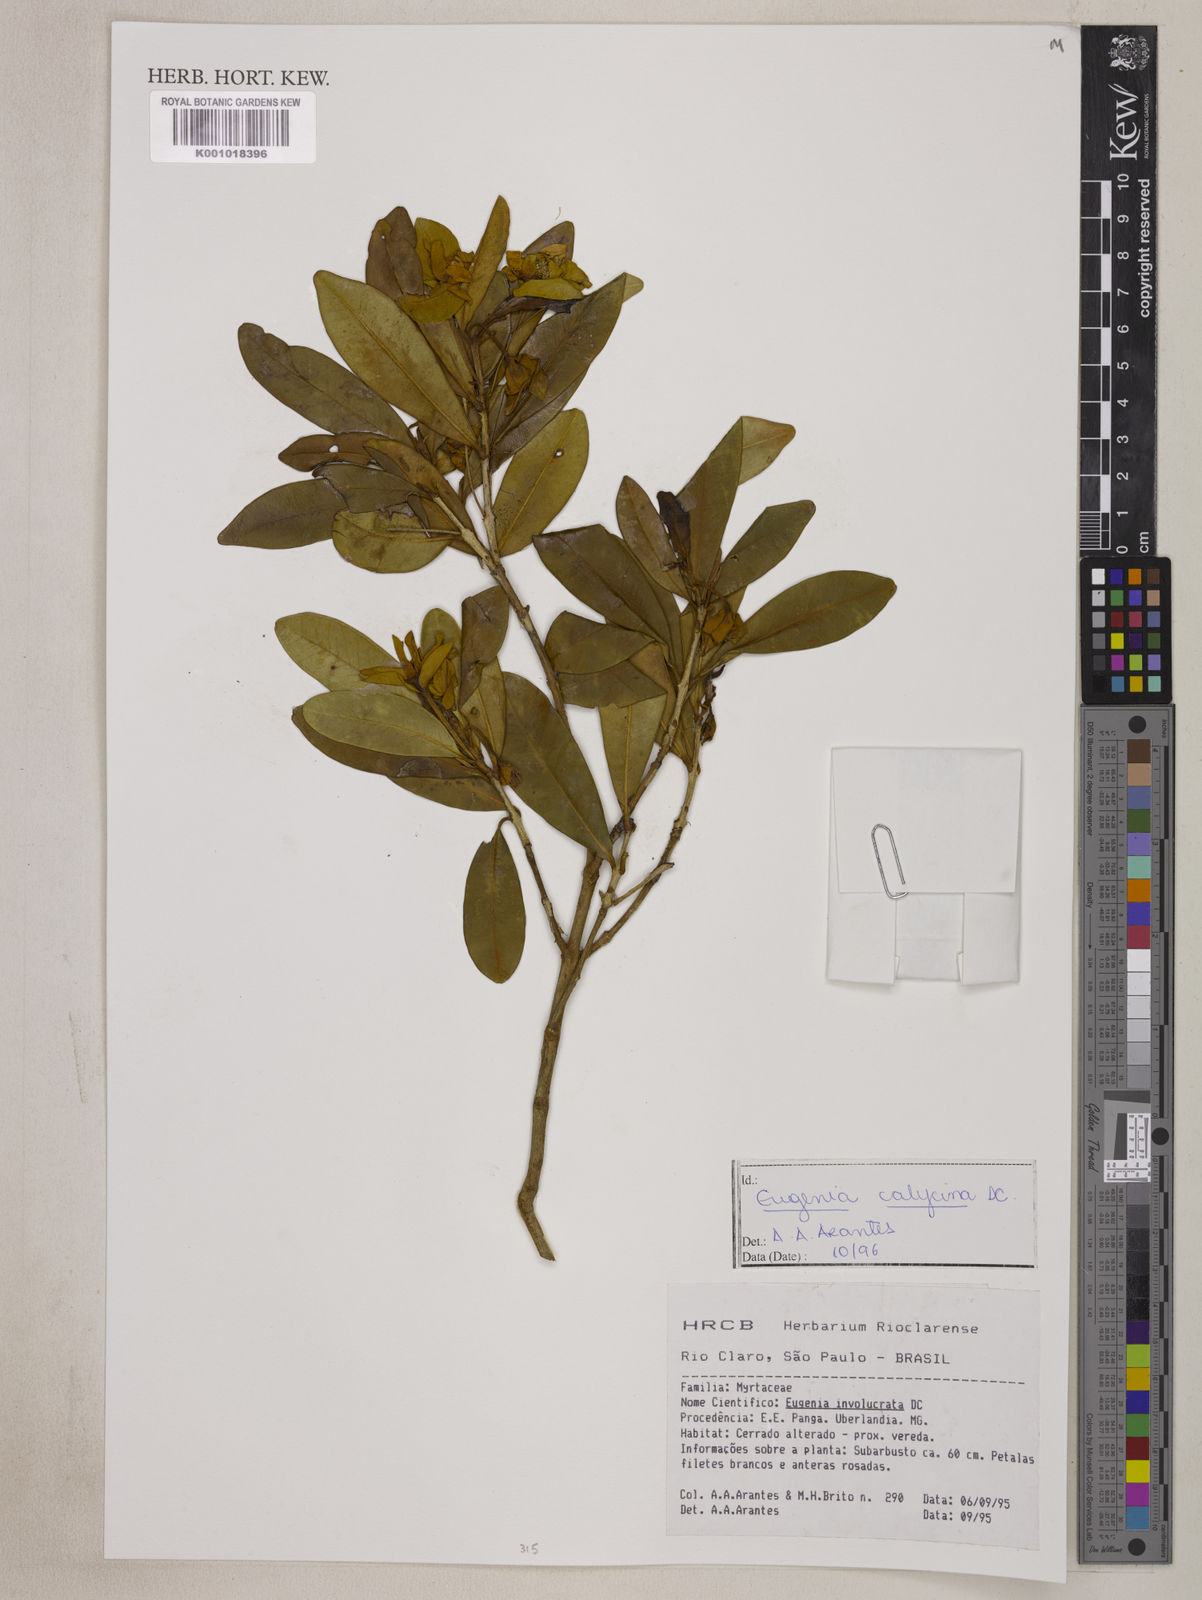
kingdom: Plantae
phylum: Tracheophyta
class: Magnoliopsida
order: Myrtales
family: Myrtaceae
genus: Eugenia
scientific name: Eugenia calycina
